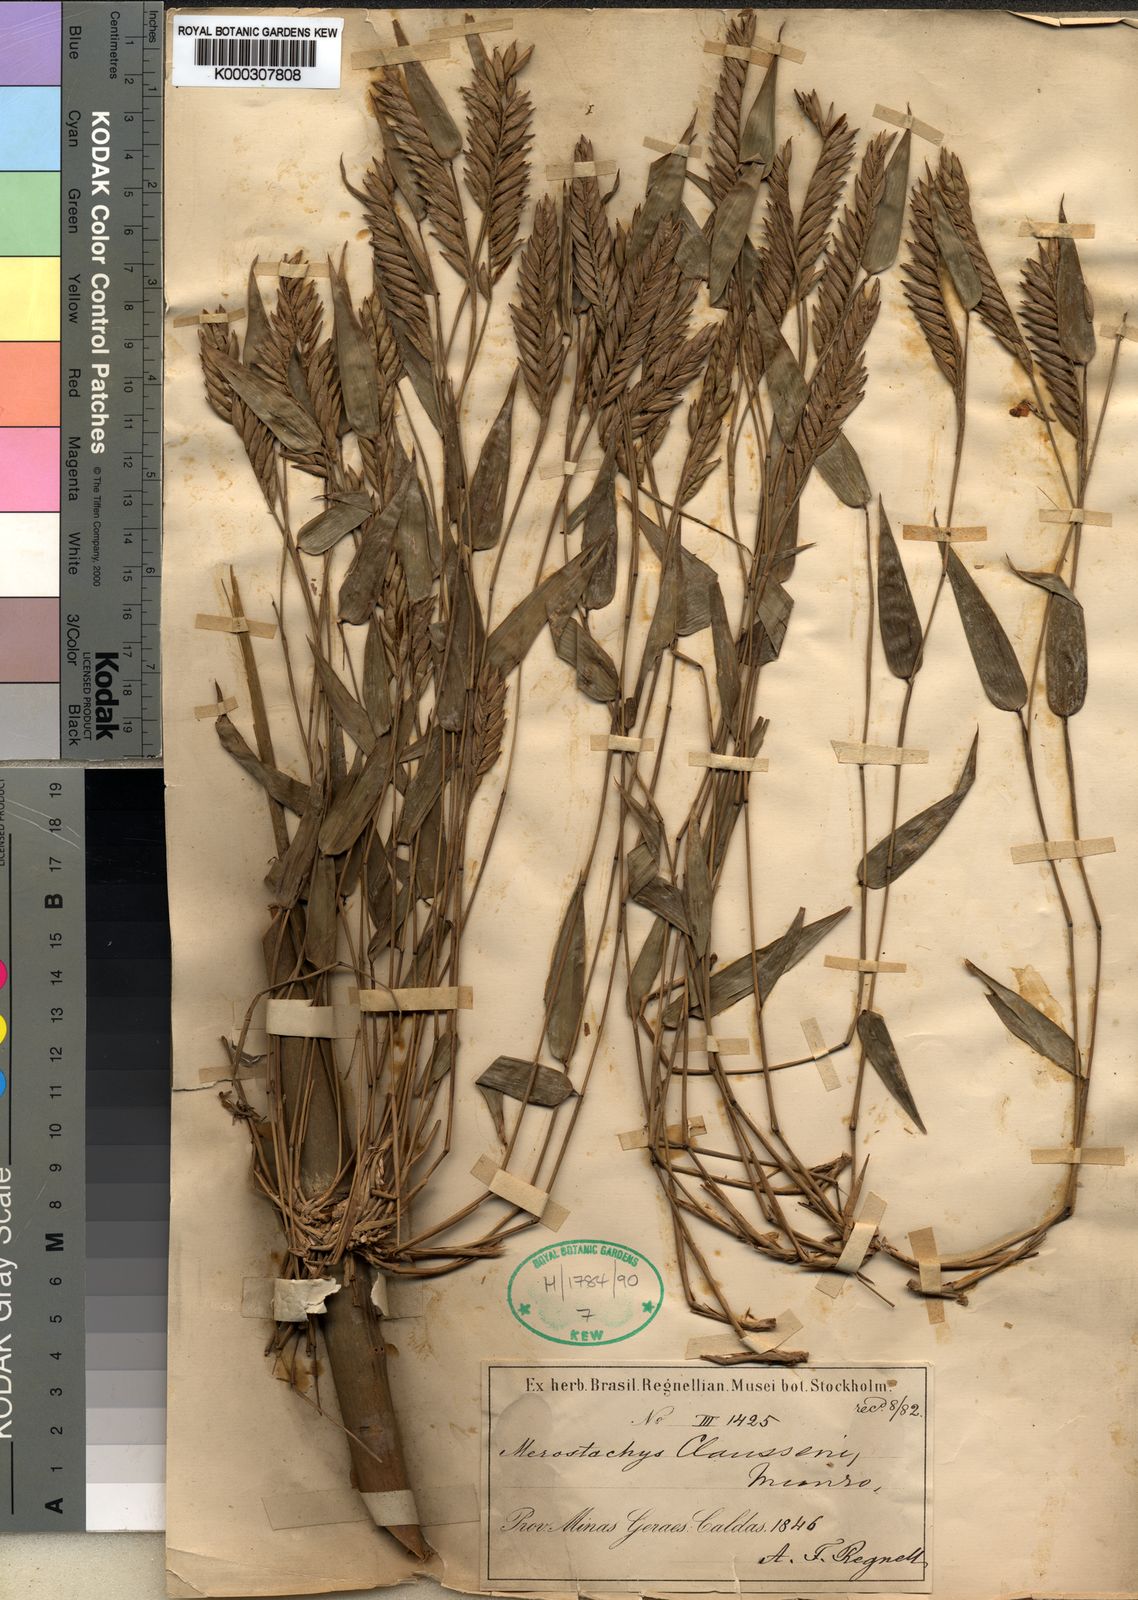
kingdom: Plantae
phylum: Tracheophyta
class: Liliopsida
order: Poales
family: Poaceae
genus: Merostachys
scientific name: Merostachys multiramea
